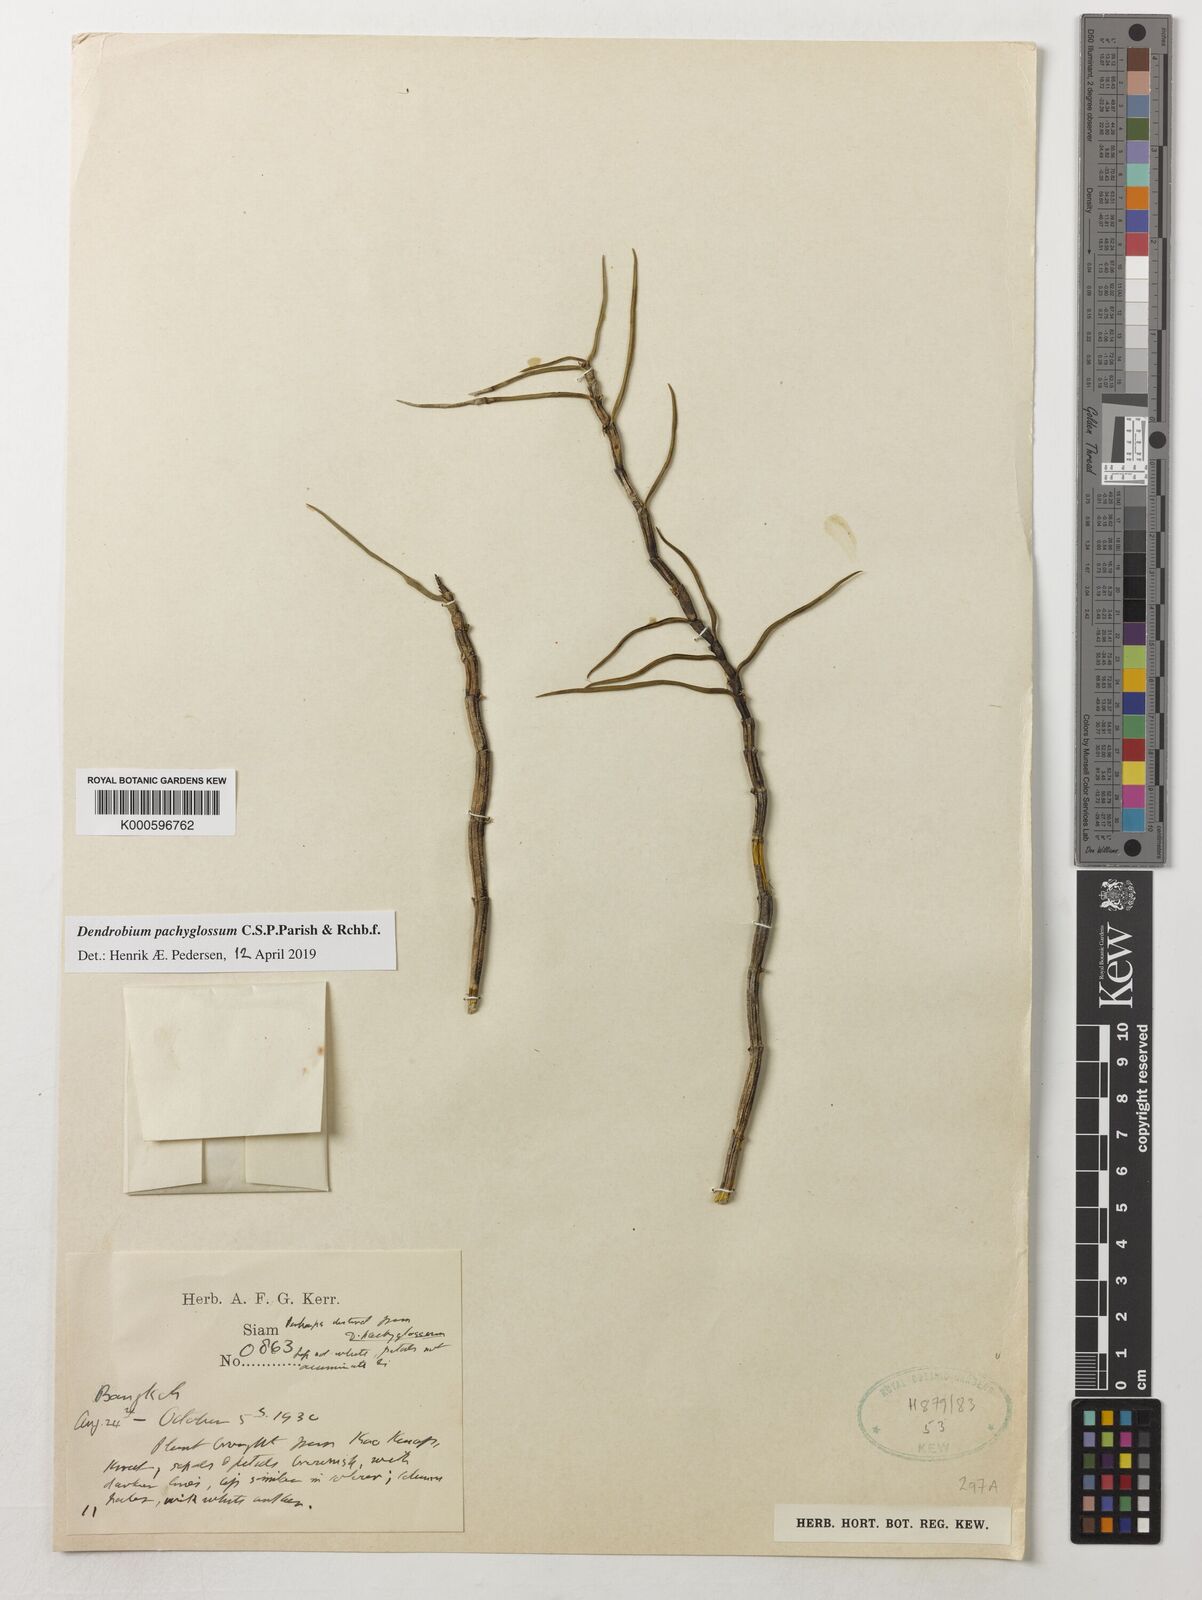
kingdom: Plantae
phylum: Tracheophyta
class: Liliopsida
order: Asparagales
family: Orchidaceae
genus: Dendrobium
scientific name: Dendrobium pachyglossum
